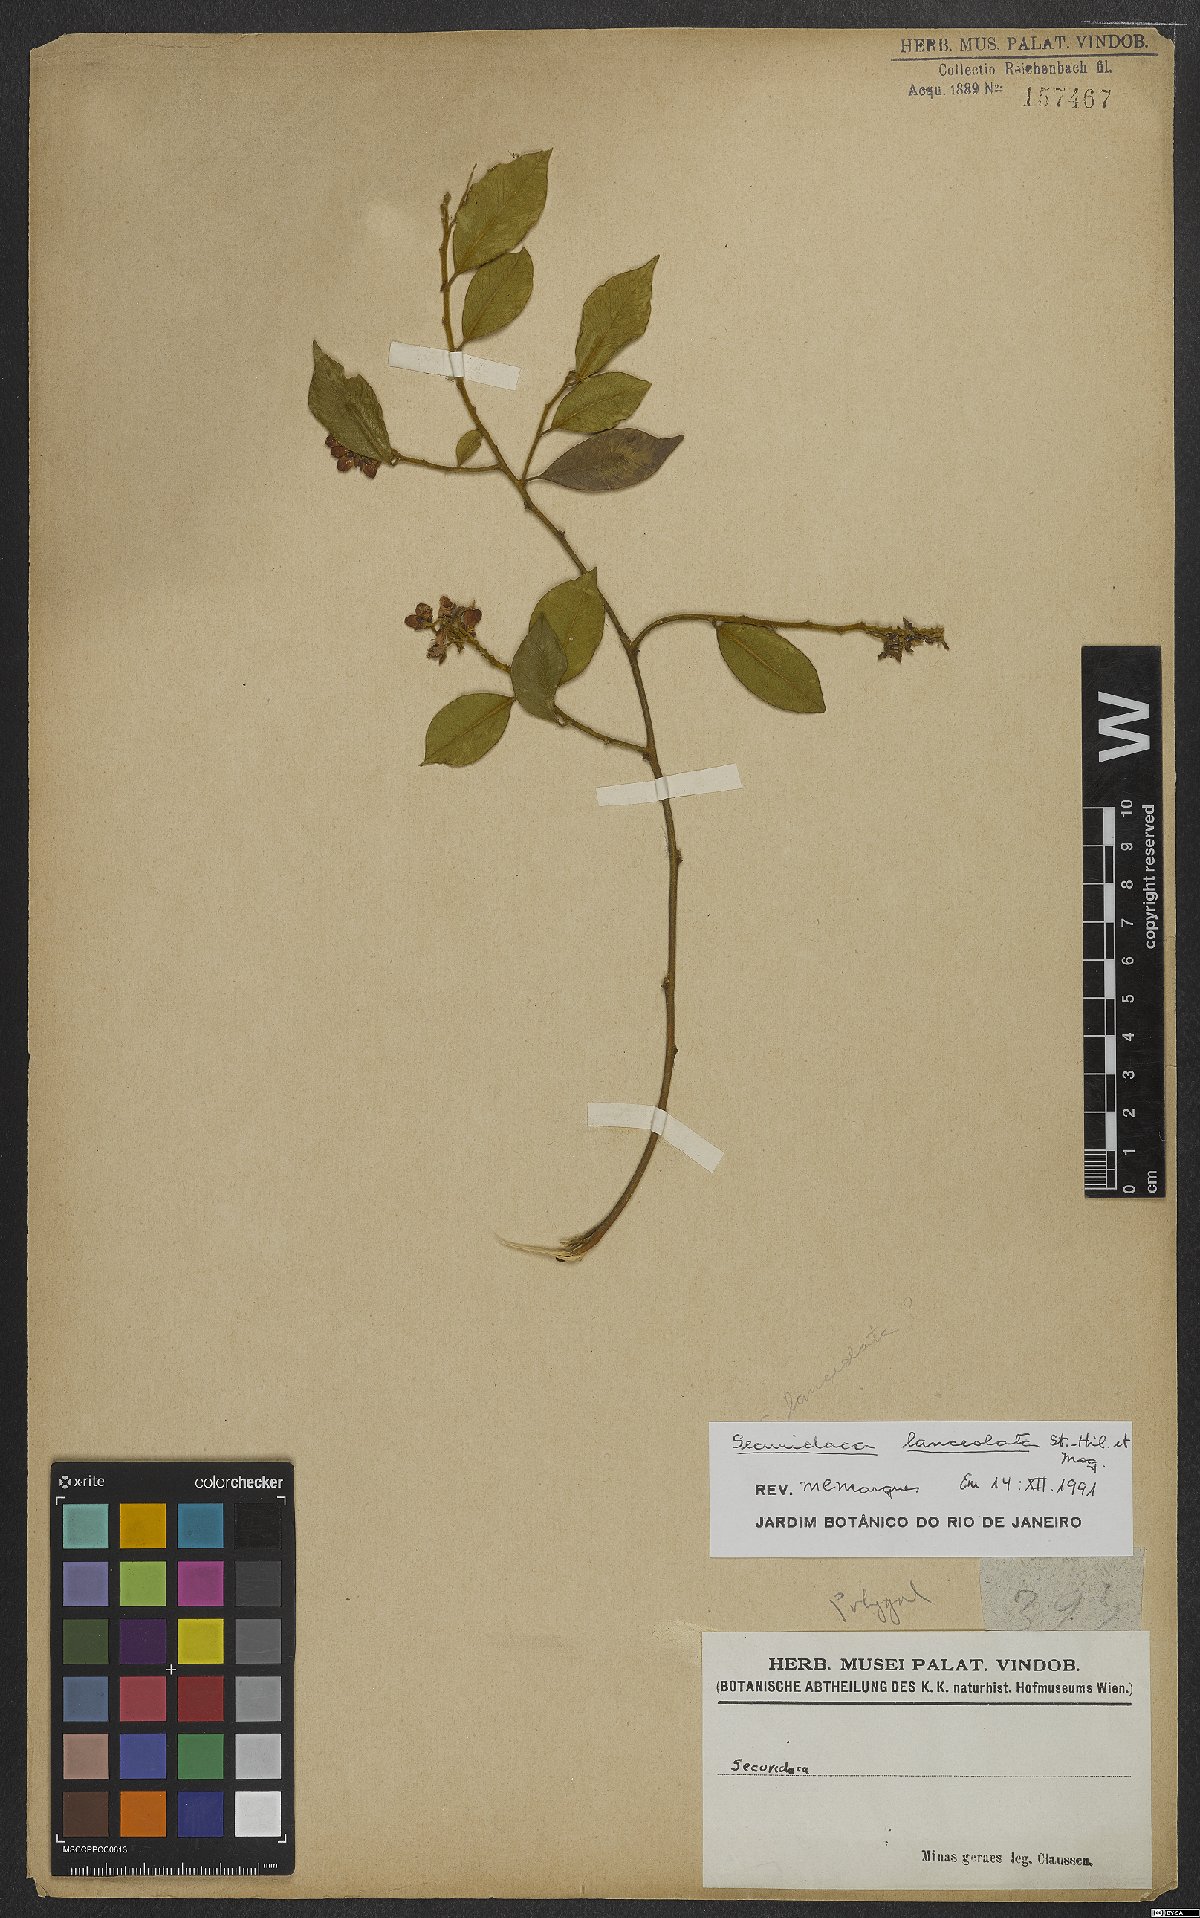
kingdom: Plantae
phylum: Tracheophyta
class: Magnoliopsida
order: Fabales
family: Polygalaceae
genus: Securidaca
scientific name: Securidaca lanceolata
